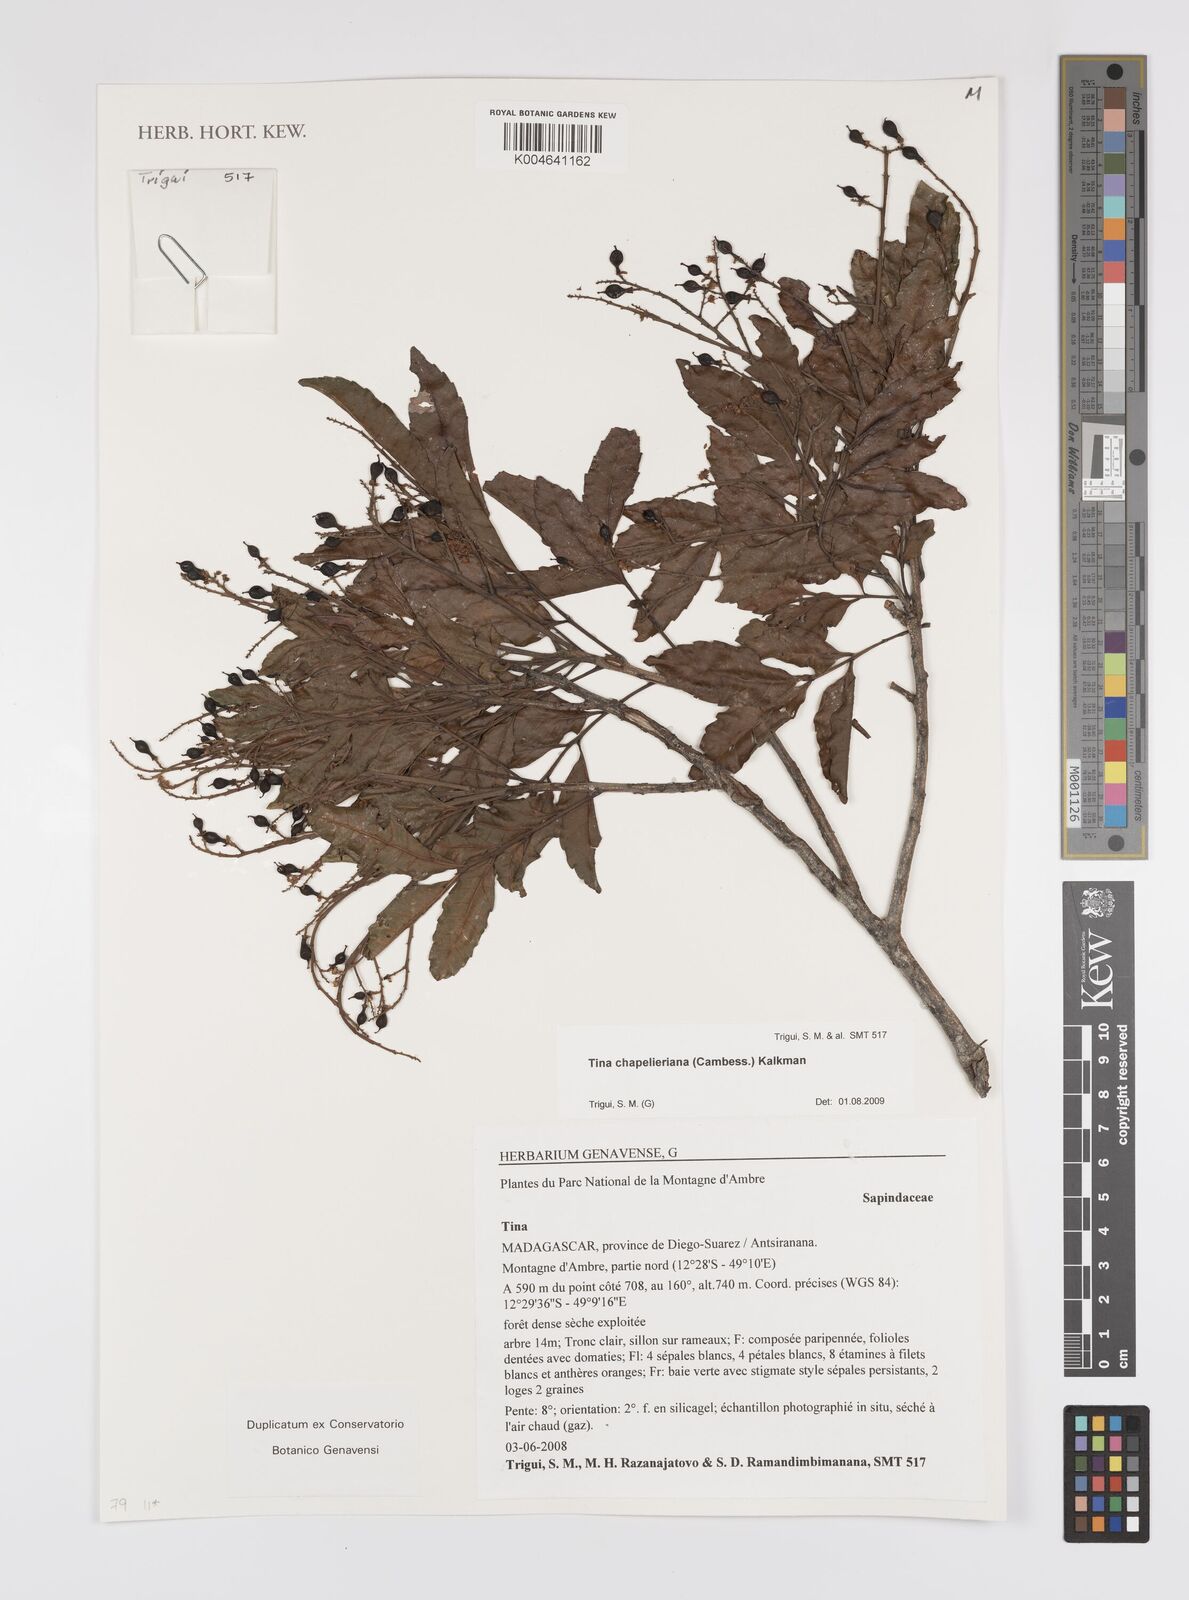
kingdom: Plantae
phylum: Tracheophyta
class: Magnoliopsida
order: Sapindales
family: Sapindaceae
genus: Tina
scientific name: Tina chapelieriana
